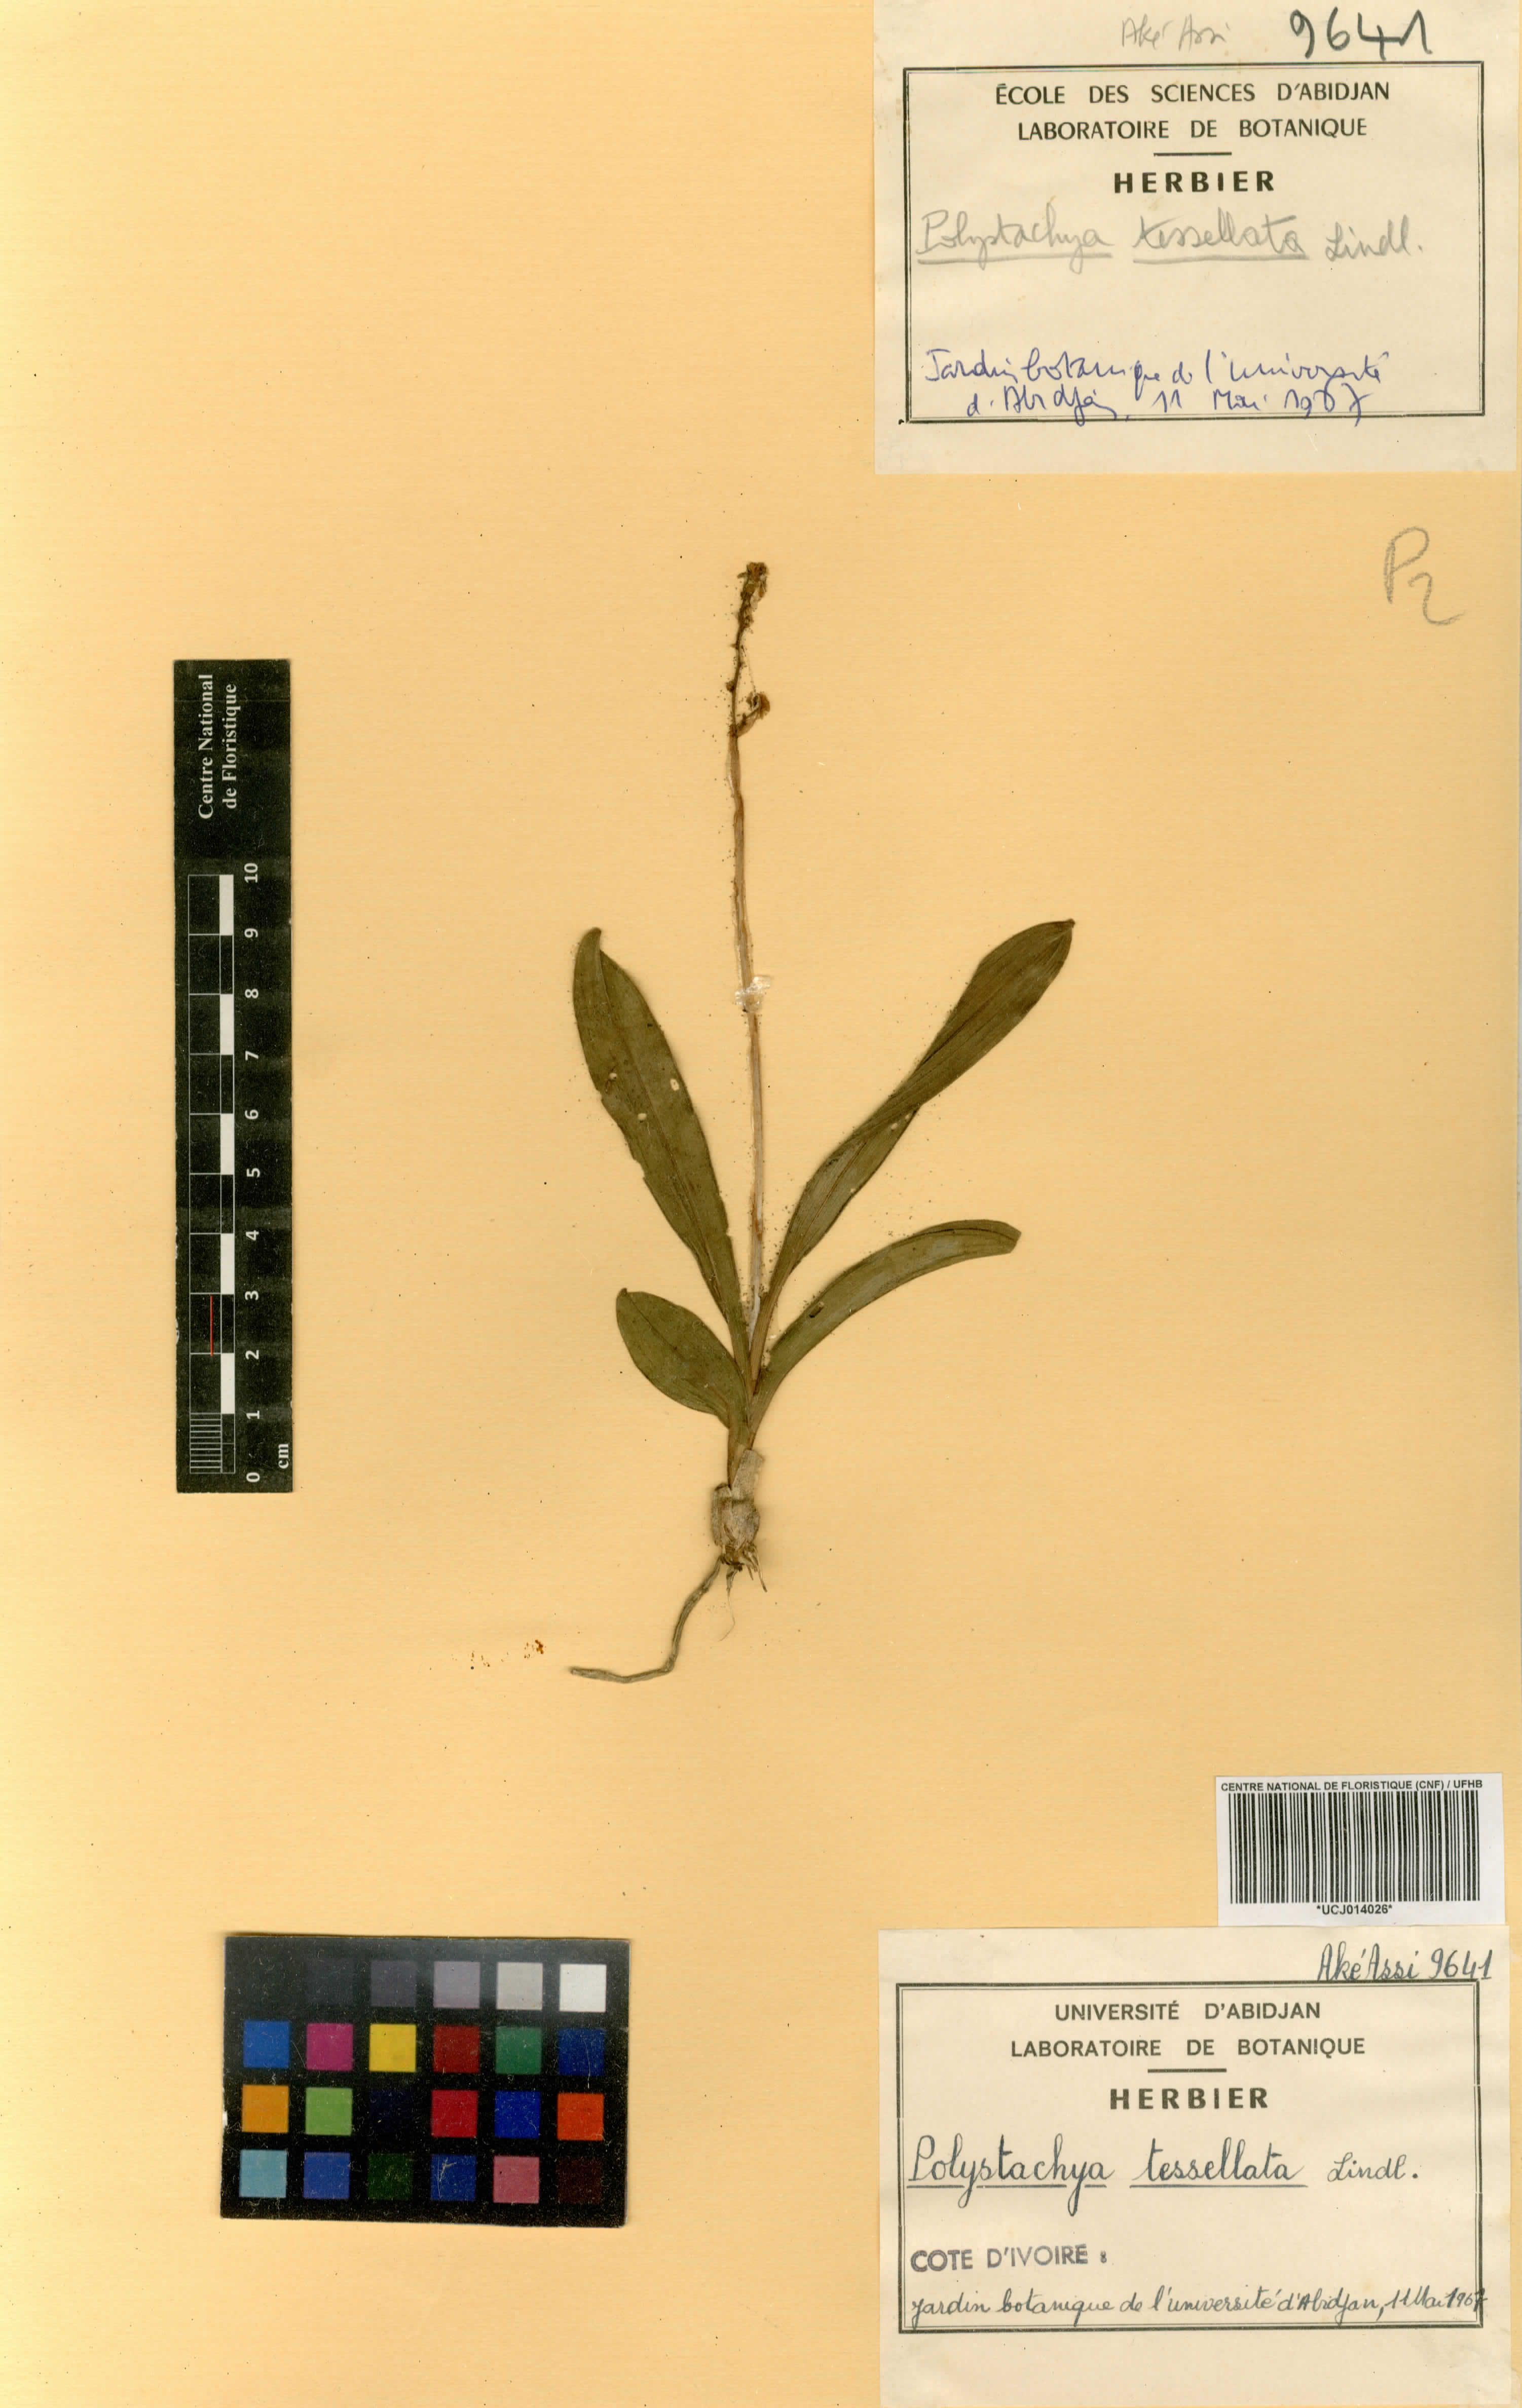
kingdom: Plantae
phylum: Tracheophyta
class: Liliopsida
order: Asparagales
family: Orchidaceae
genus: Polystachya
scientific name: Polystachya concreta
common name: Greater yellowspike orchid
